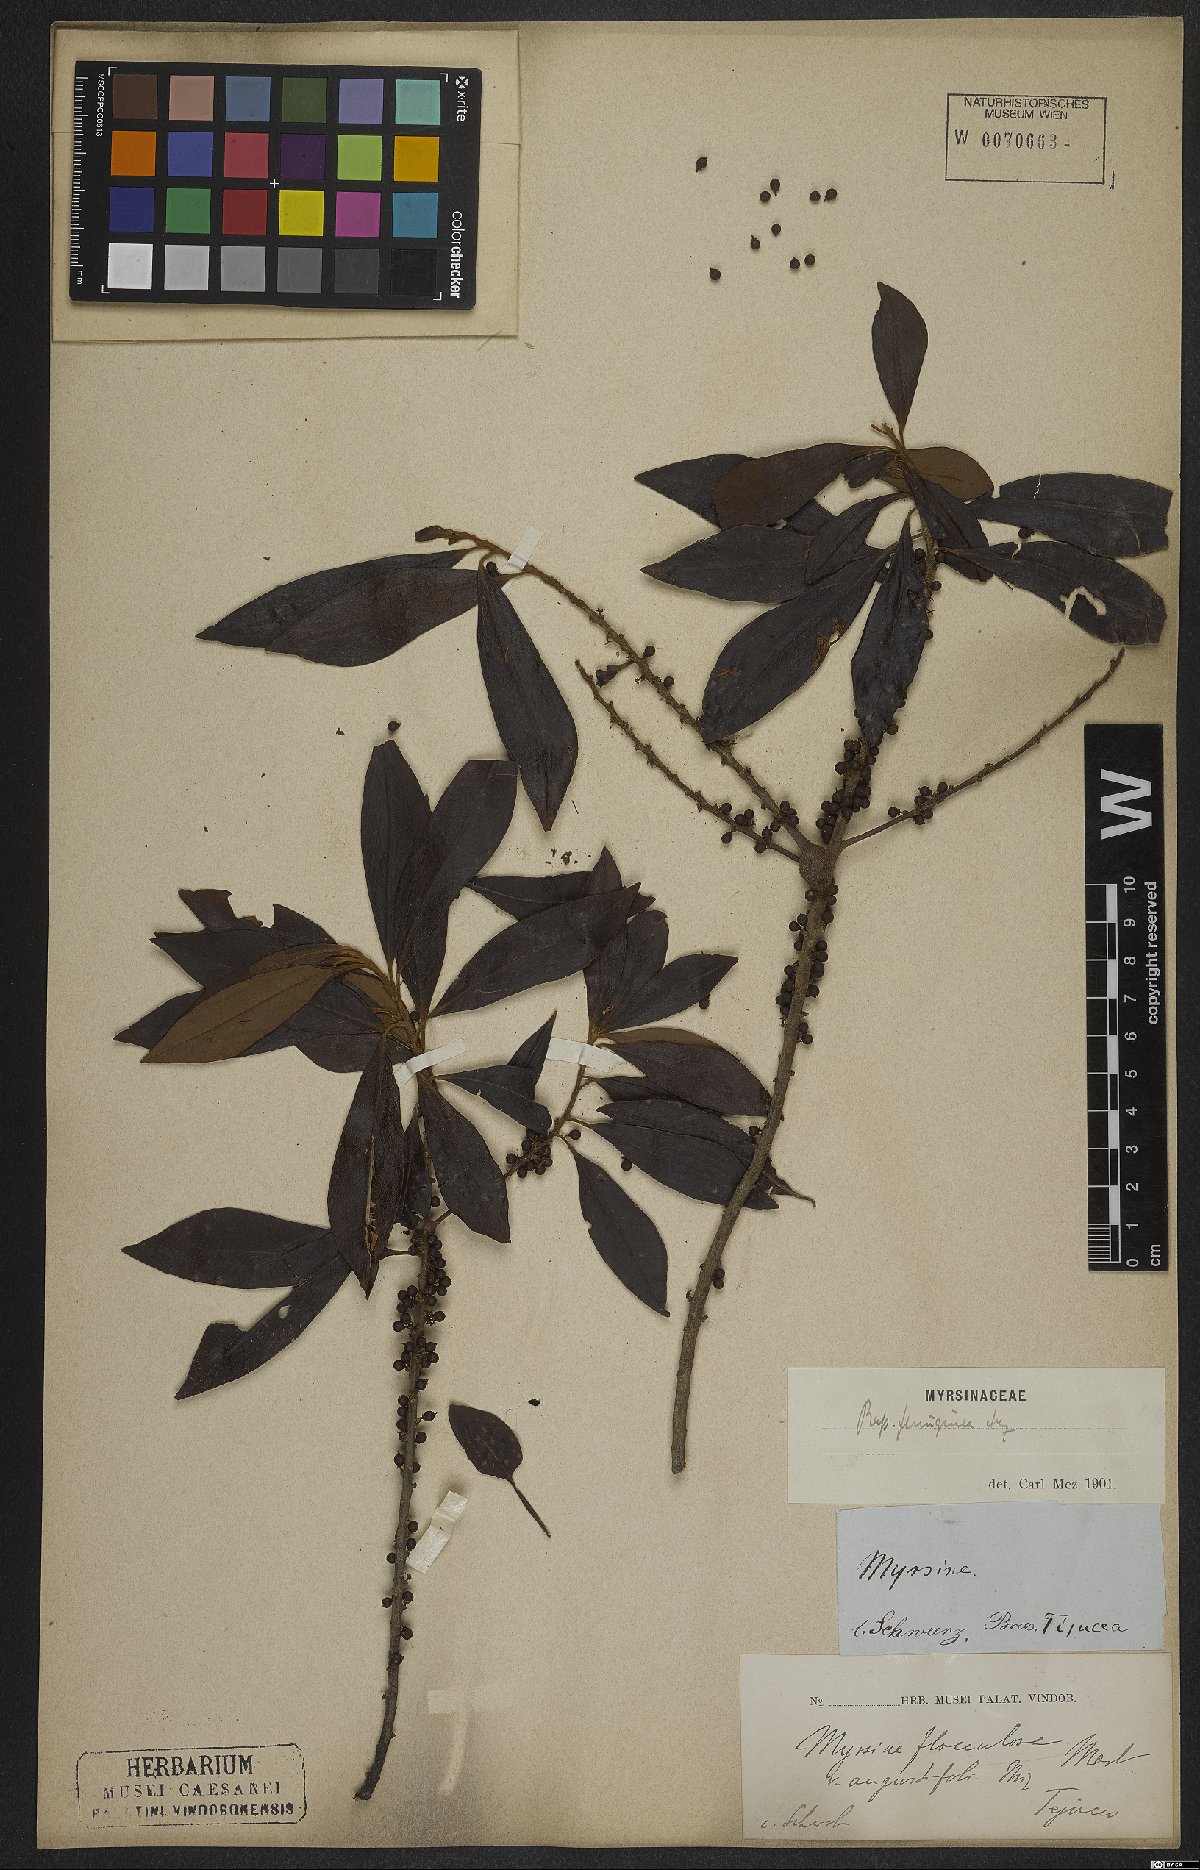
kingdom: Plantae
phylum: Tracheophyta
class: Magnoliopsida
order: Ericales
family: Primulaceae
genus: Myrsine
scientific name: Myrsine coriacea
